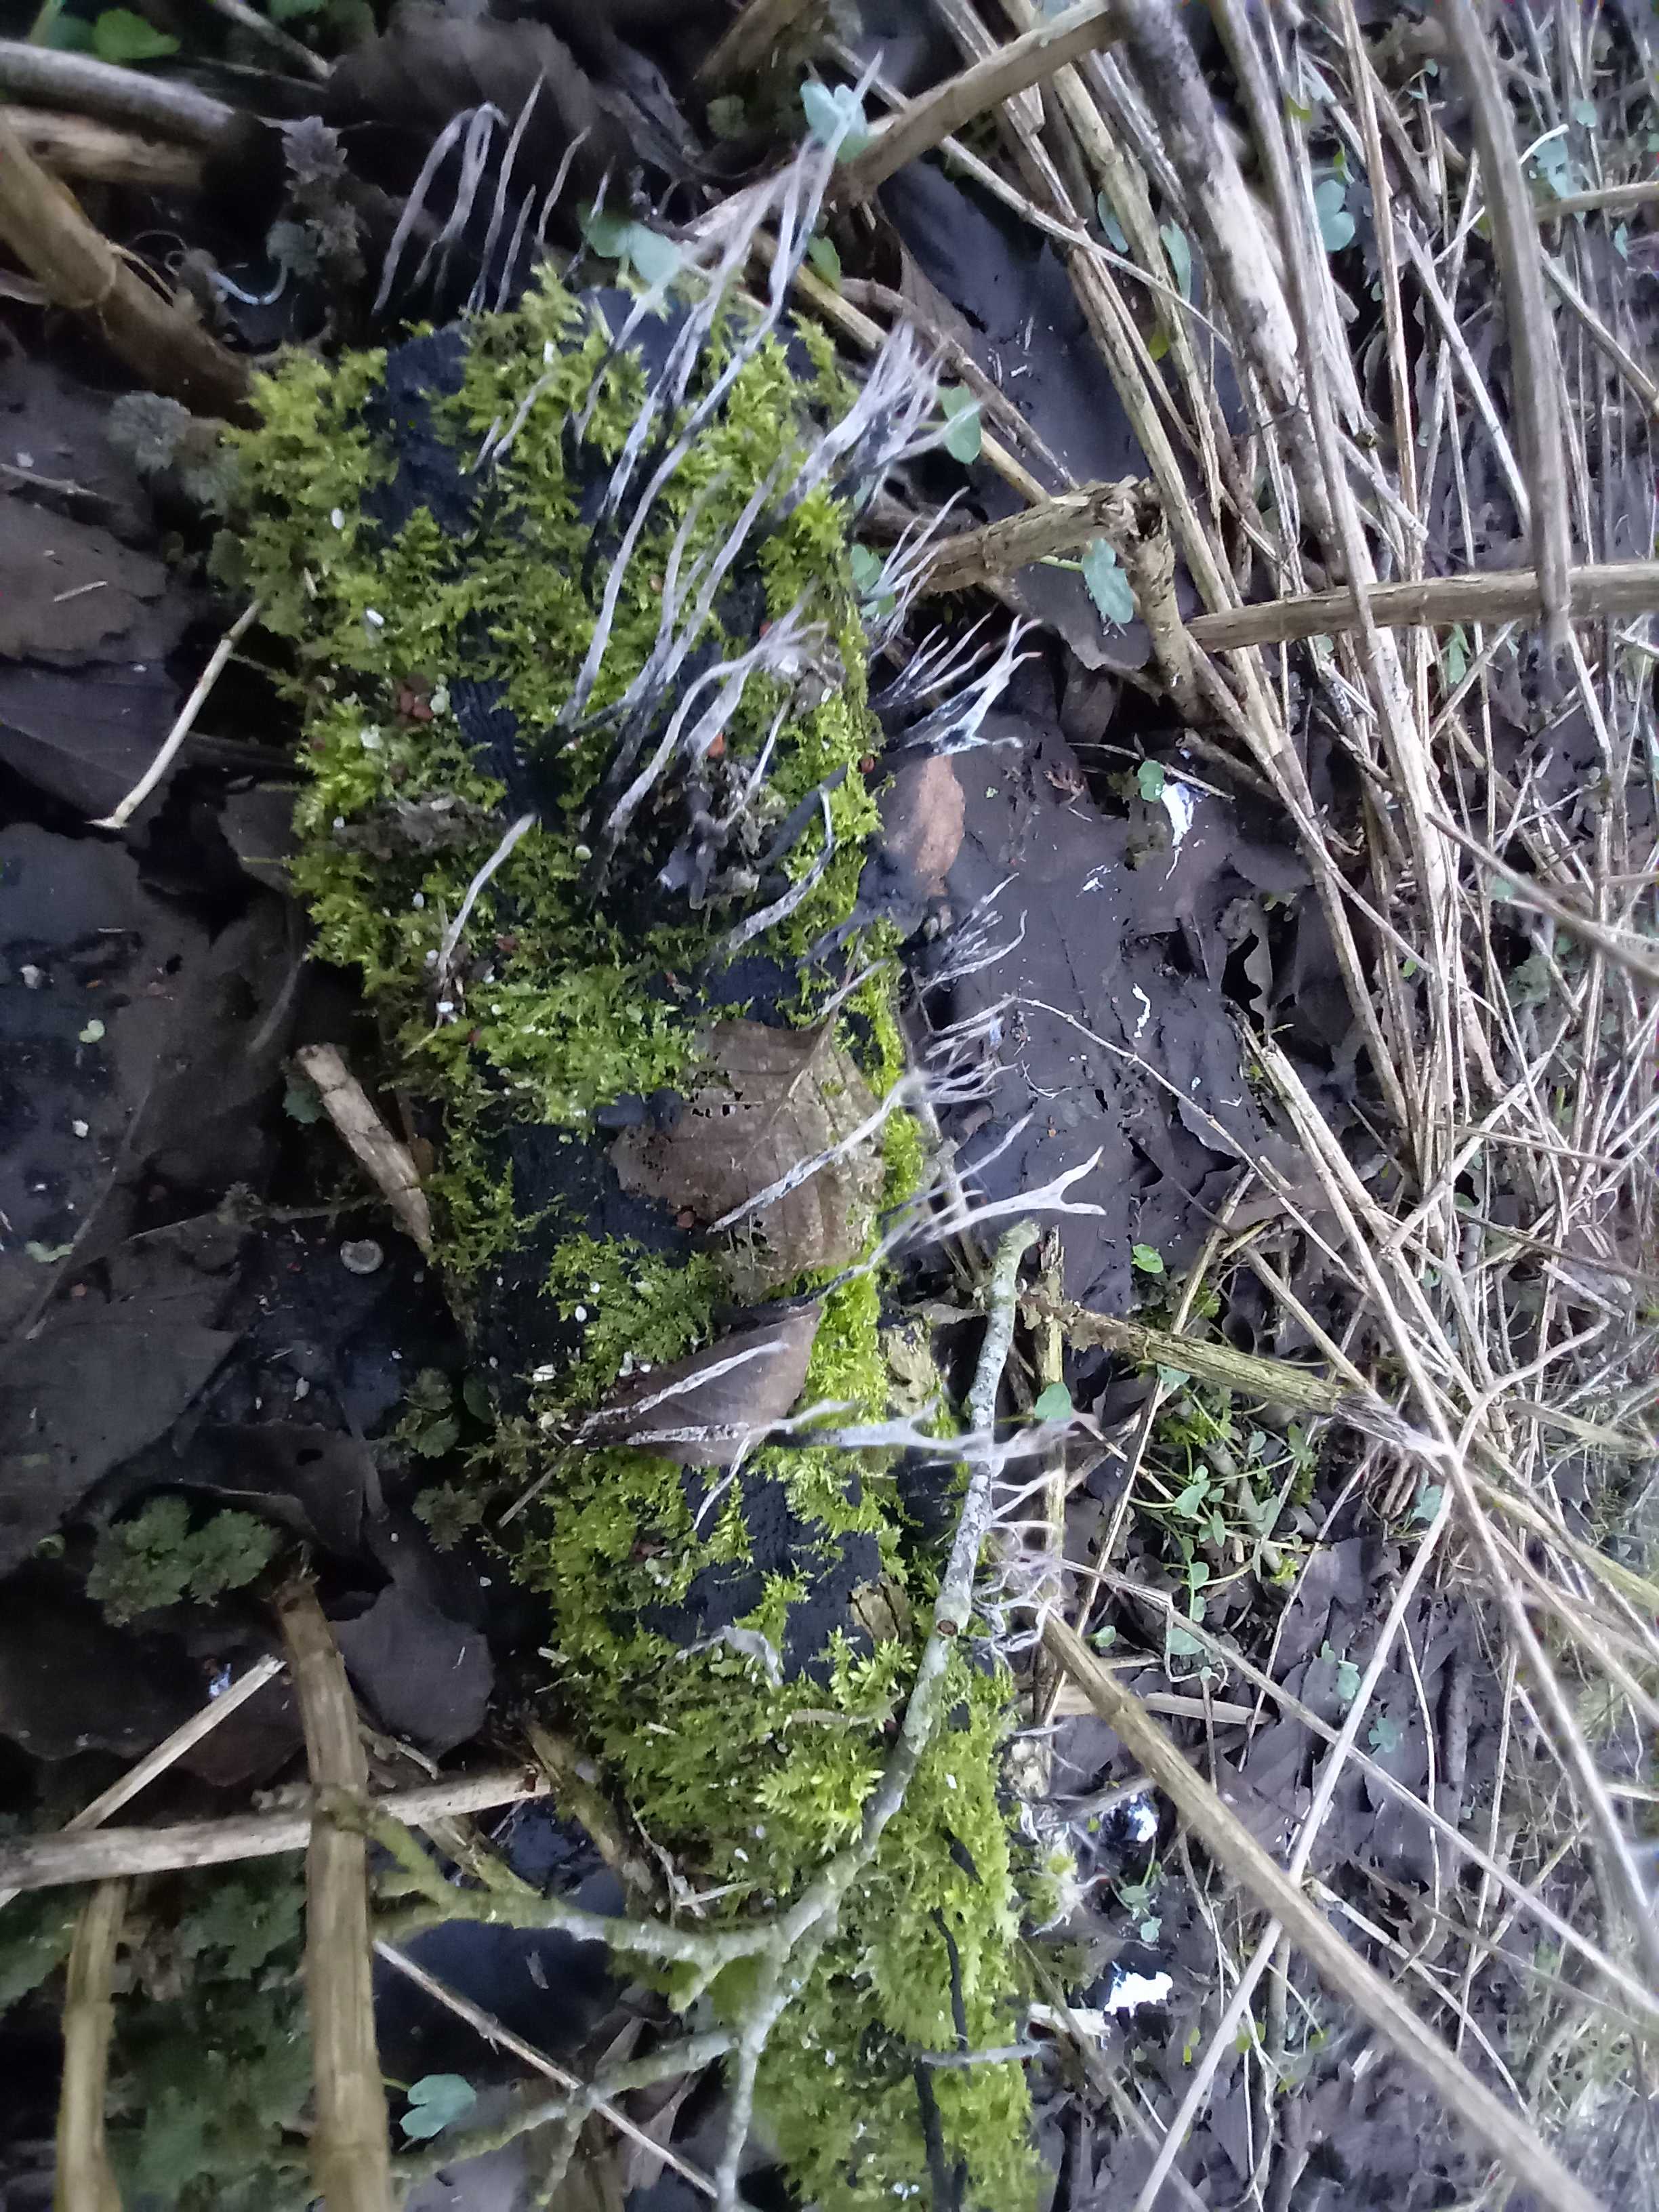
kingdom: Fungi
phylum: Ascomycota
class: Sordariomycetes
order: Xylariales
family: Xylariaceae
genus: Xylaria
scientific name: Xylaria hypoxylon
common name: grenet stødsvamp
